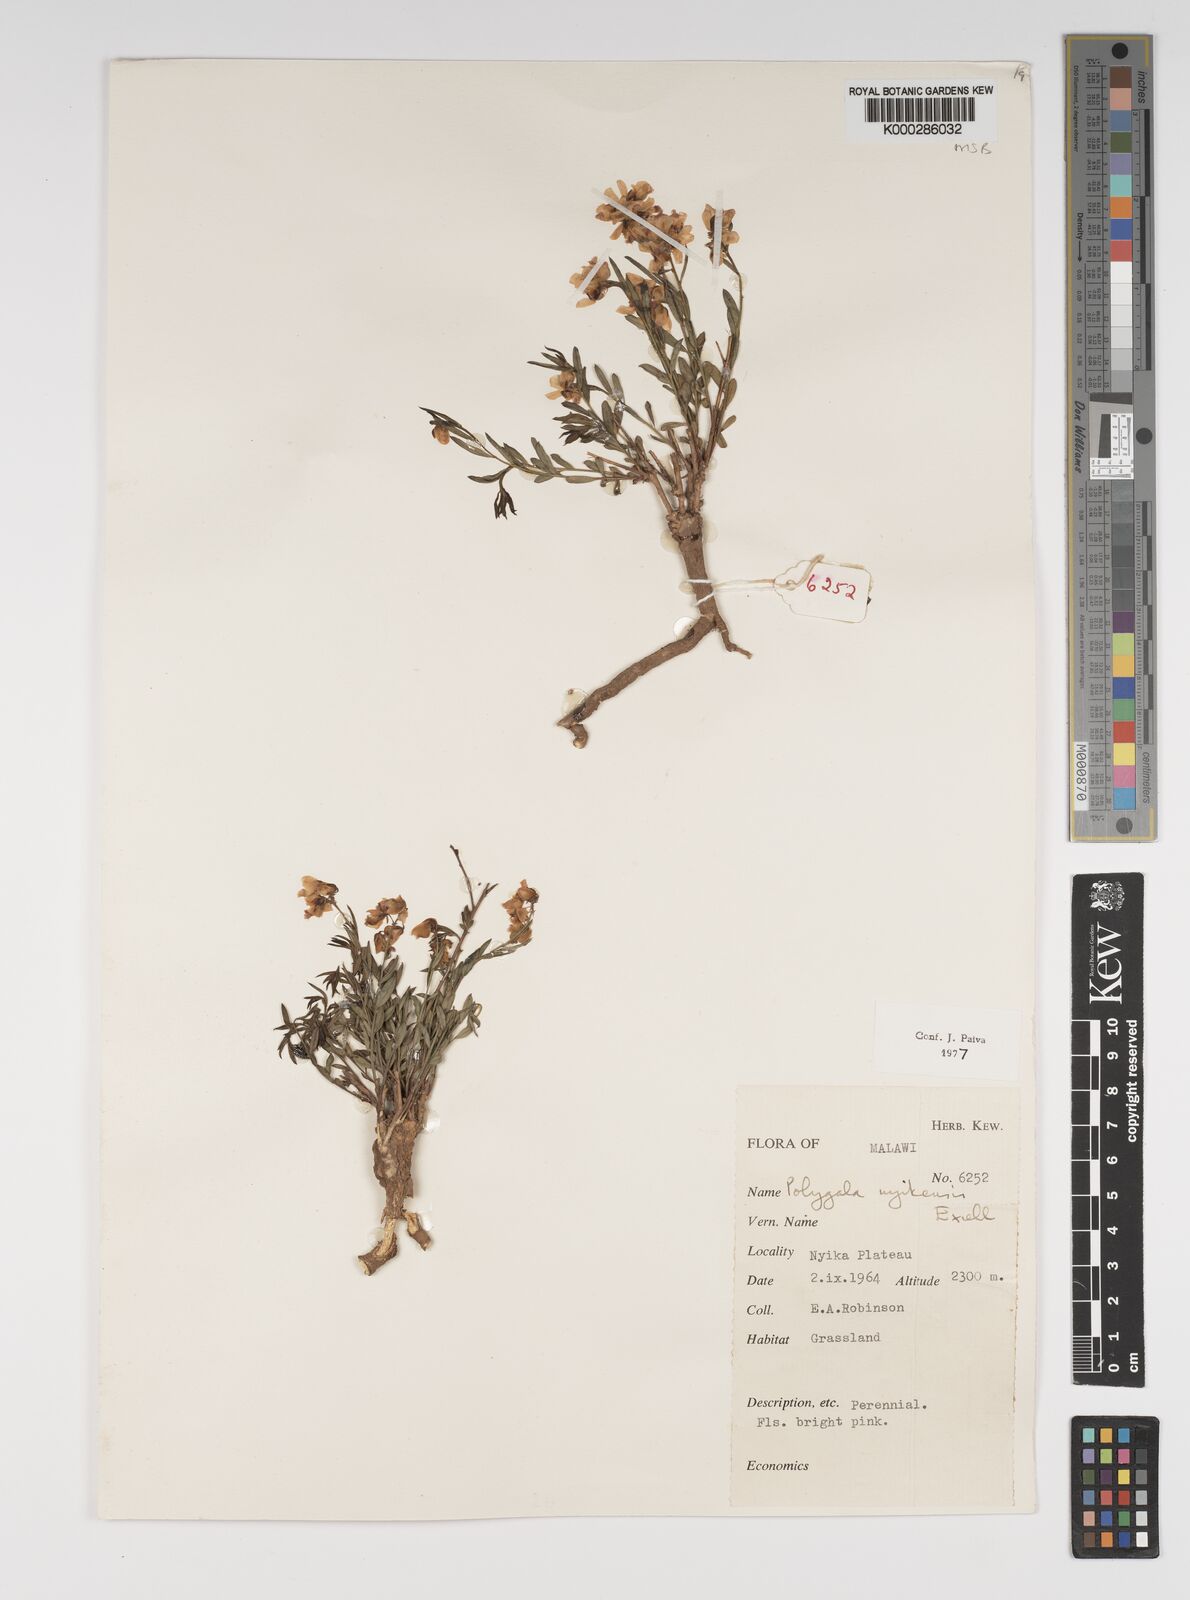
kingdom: Plantae
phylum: Tracheophyta
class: Magnoliopsida
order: Fabales
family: Polygalaceae
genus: Polygala
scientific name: Polygala nyikensis
